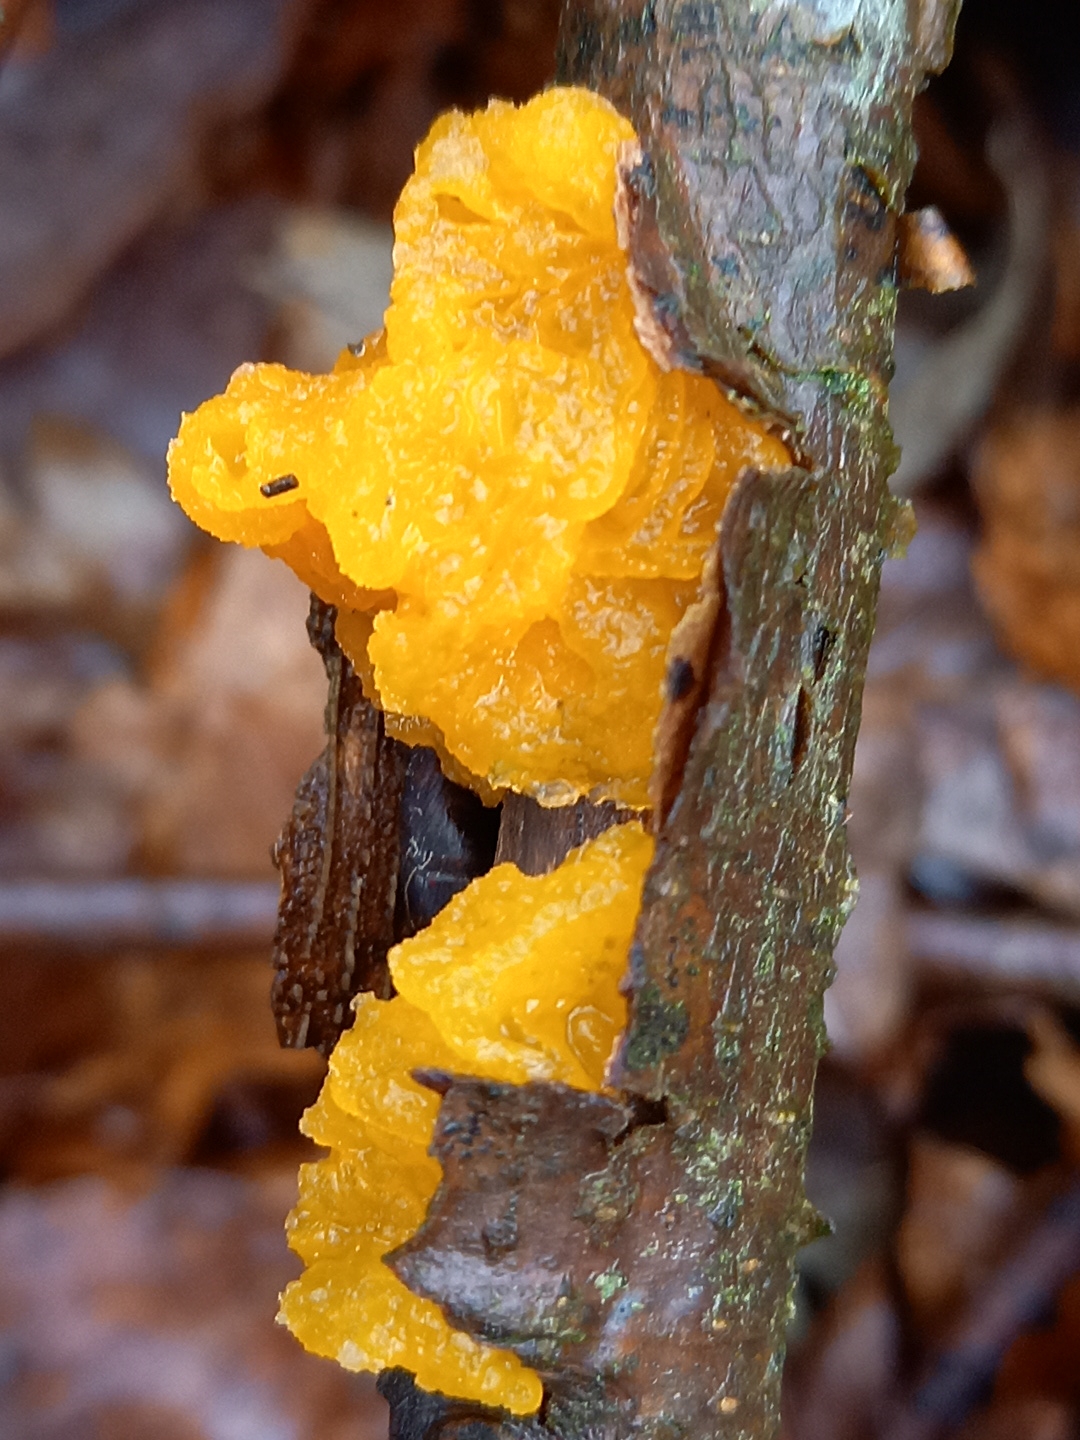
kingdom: Fungi
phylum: Basidiomycota
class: Tremellomycetes
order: Tremellales
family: Tremellaceae
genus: Tremella
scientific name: Tremella mesenterica
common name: gul bævresvamp
